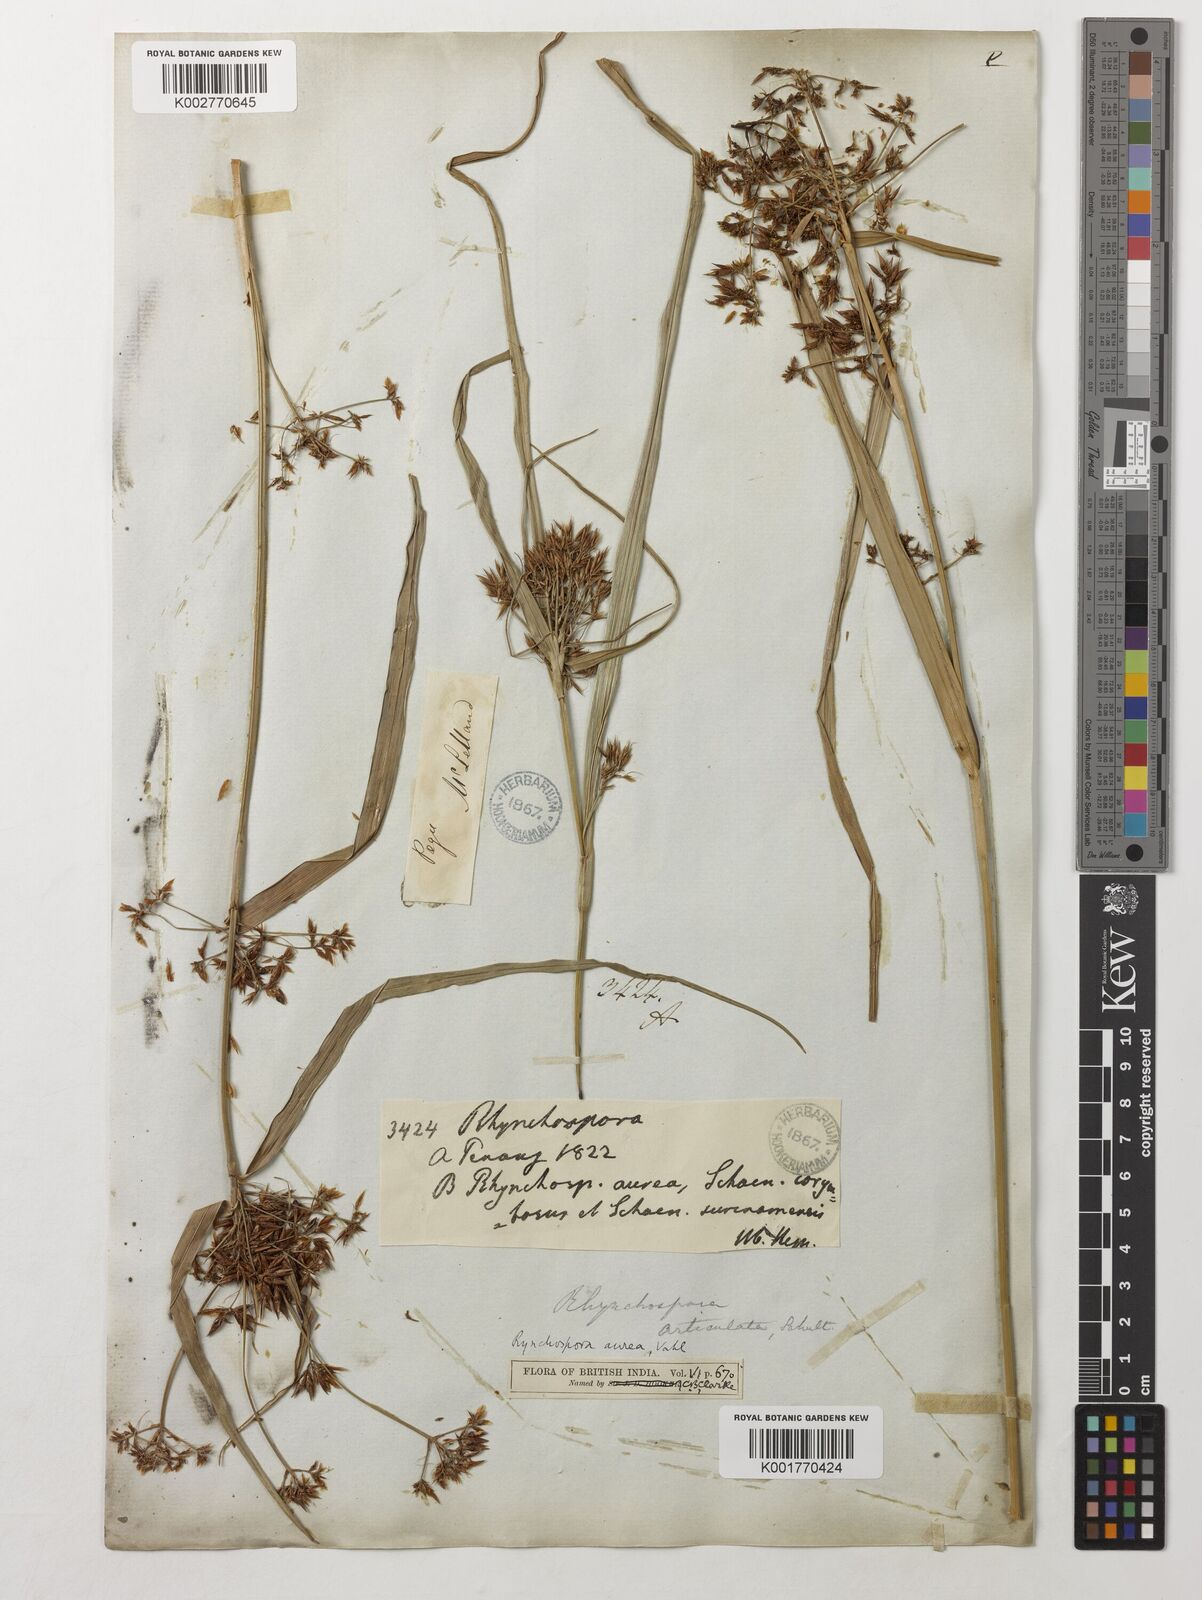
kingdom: Plantae
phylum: Tracheophyta
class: Liliopsida
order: Poales
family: Cyperaceae
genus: Rhynchospora
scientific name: Rhynchospora corymbosa
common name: Golden beak sedge
